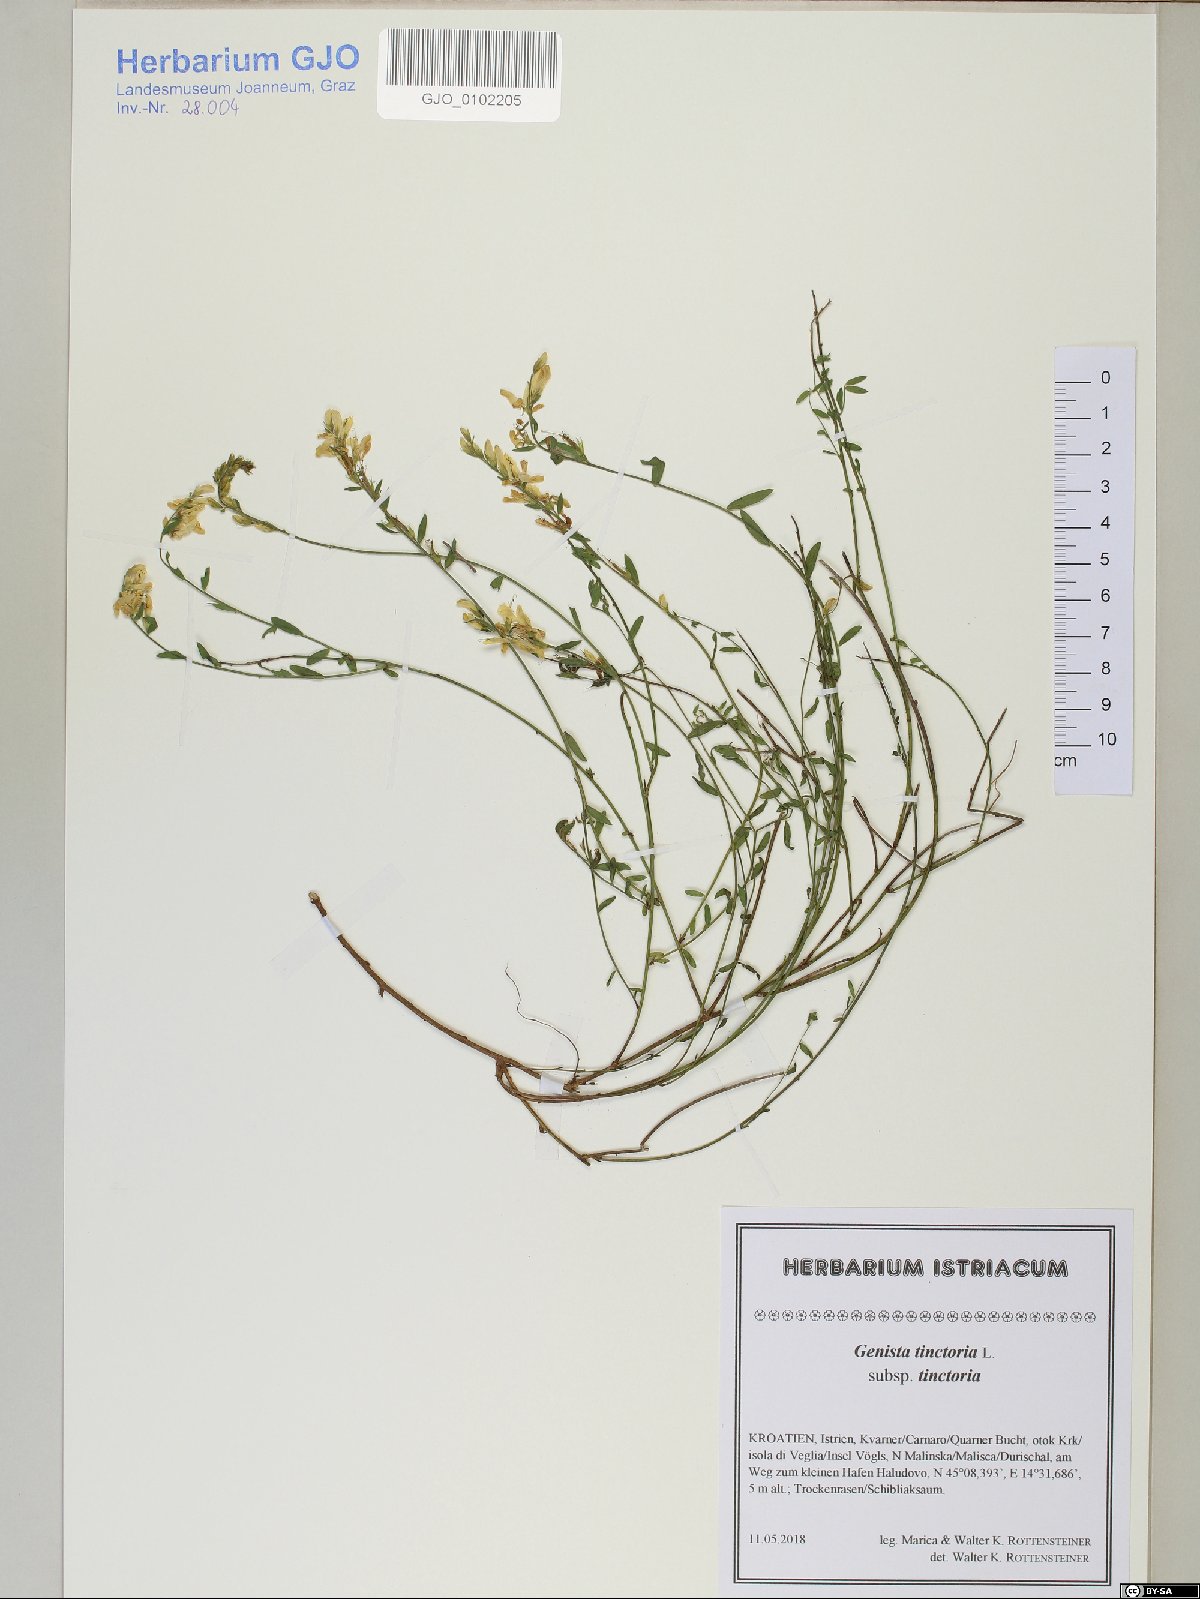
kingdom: Plantae
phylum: Tracheophyta
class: Magnoliopsida
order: Fabales
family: Fabaceae
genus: Genista
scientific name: Genista tinctoria
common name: Dyer's greenweed
